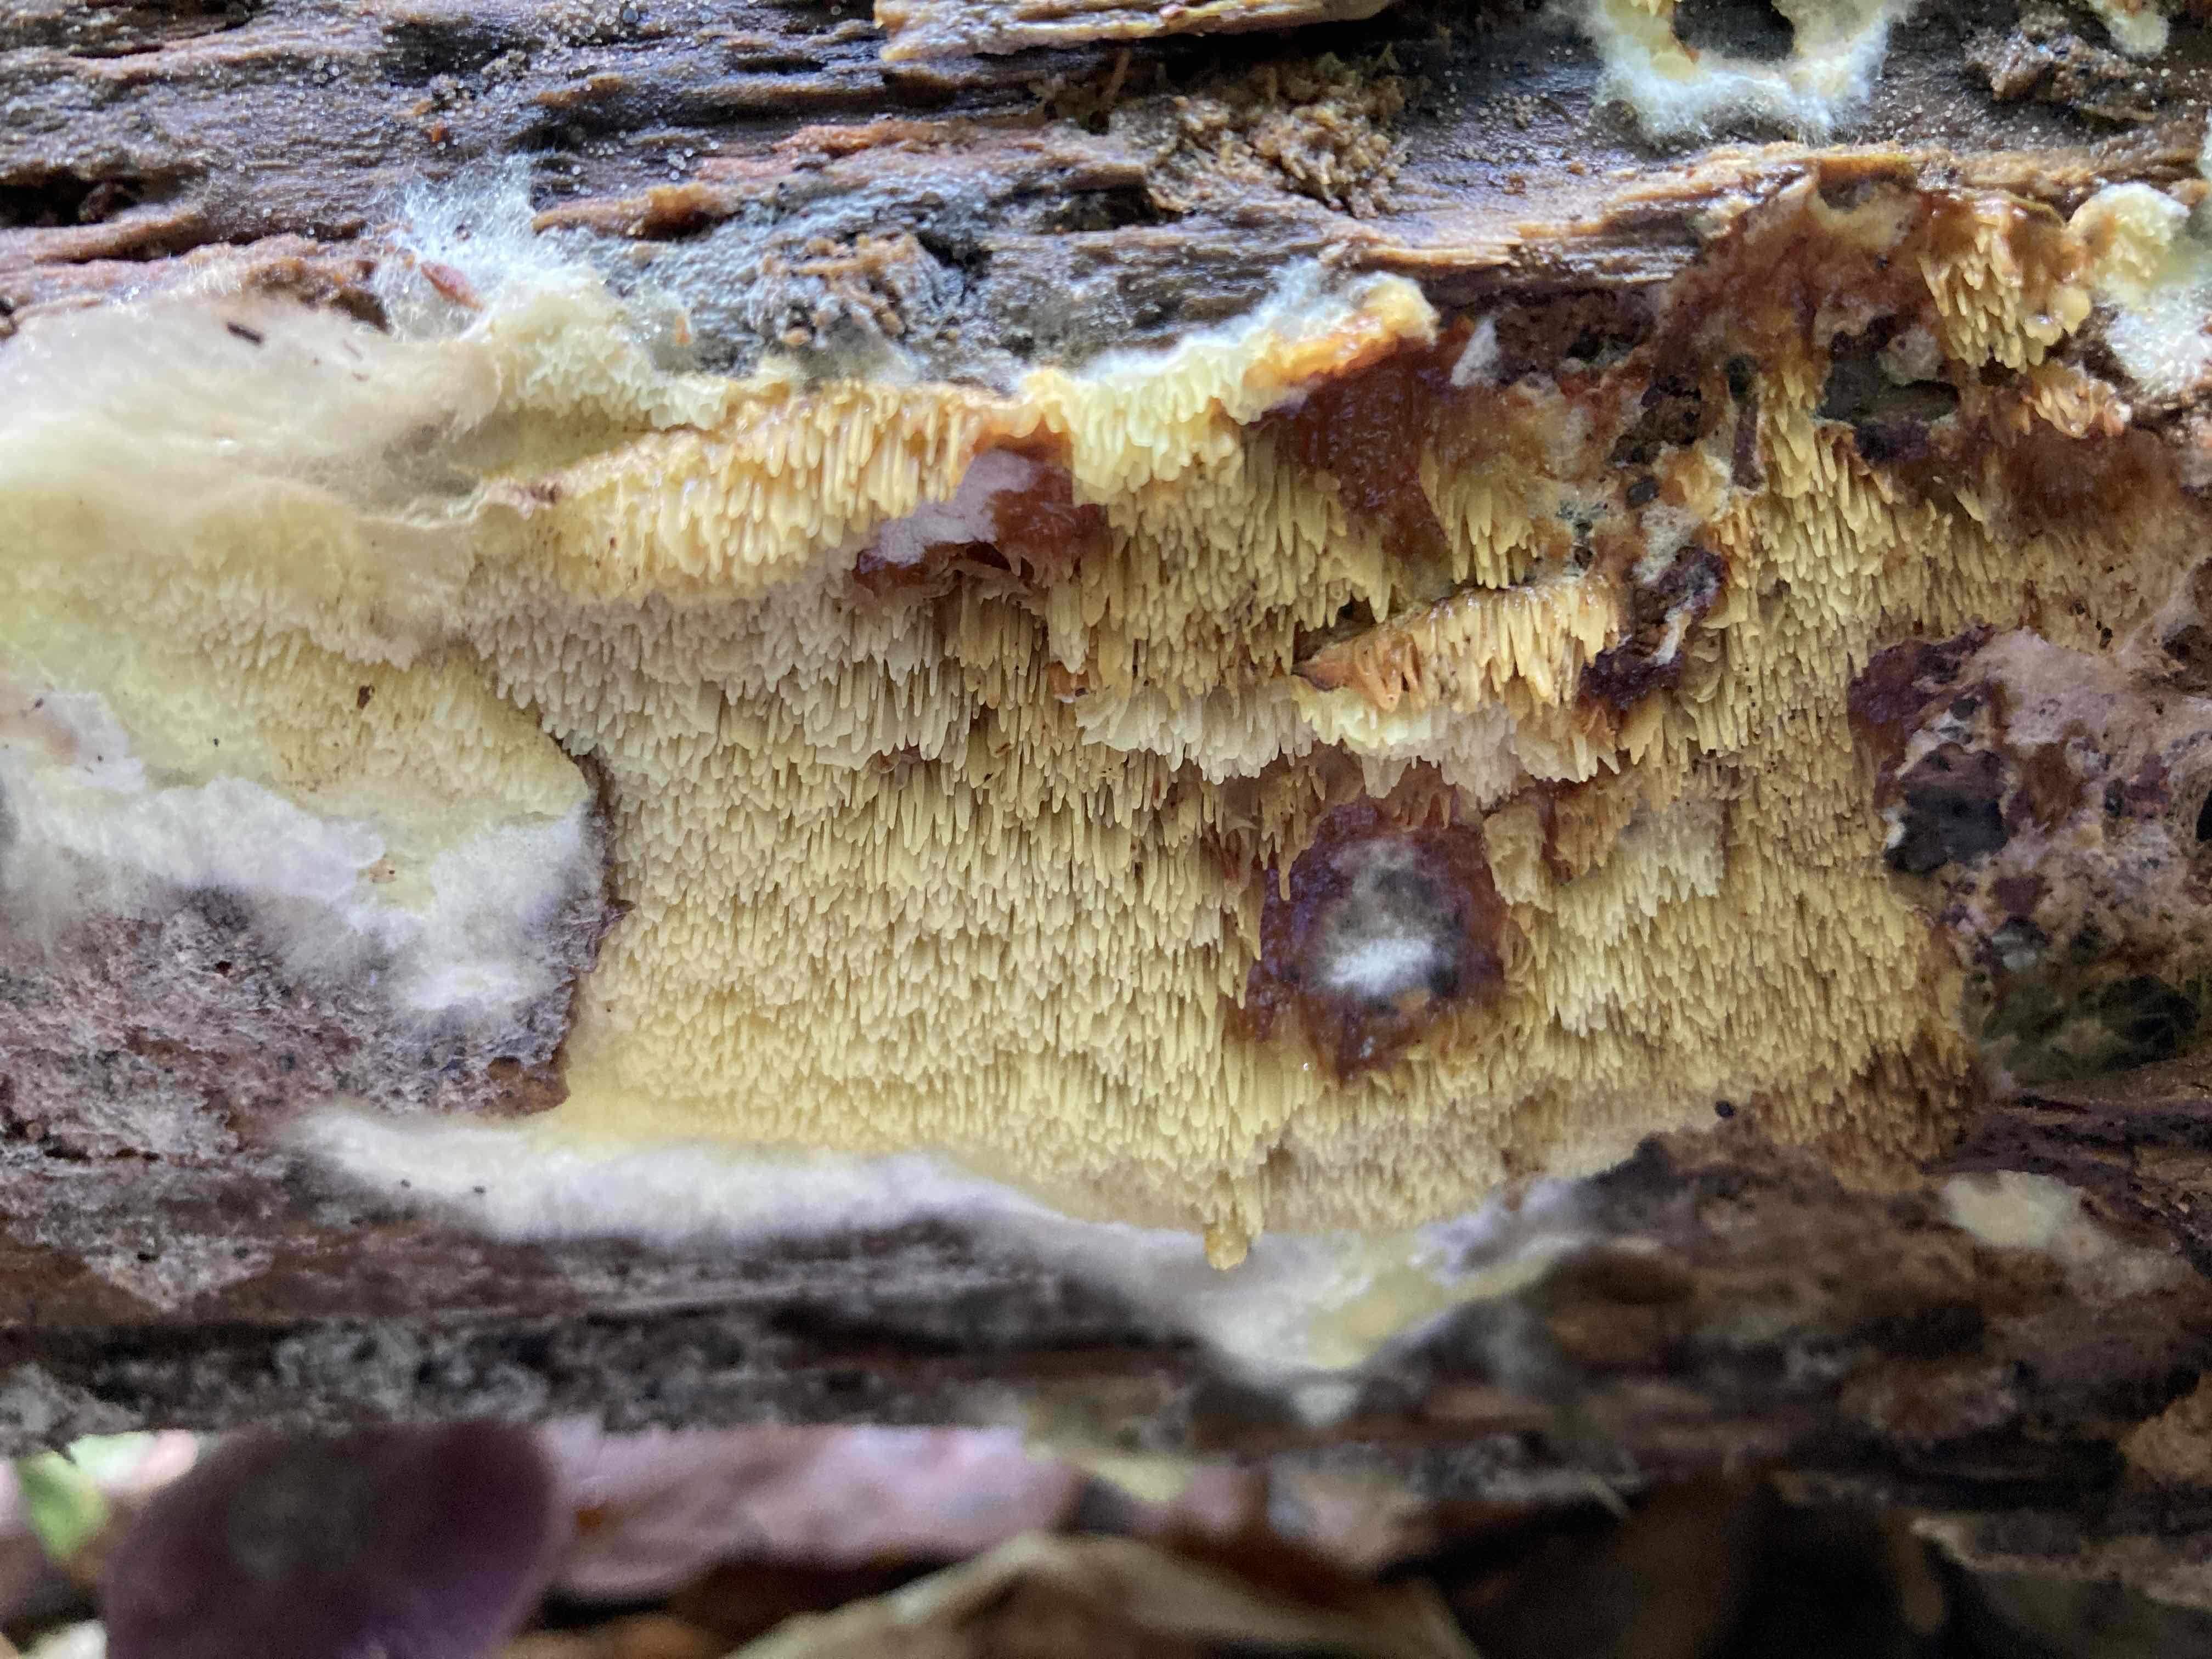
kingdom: Fungi
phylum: Basidiomycota
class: Agaricomycetes
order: Boletales
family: Paxillaceae
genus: Hydnomerulius
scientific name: Hydnomerulius pinastri
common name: pigget hussvamp
